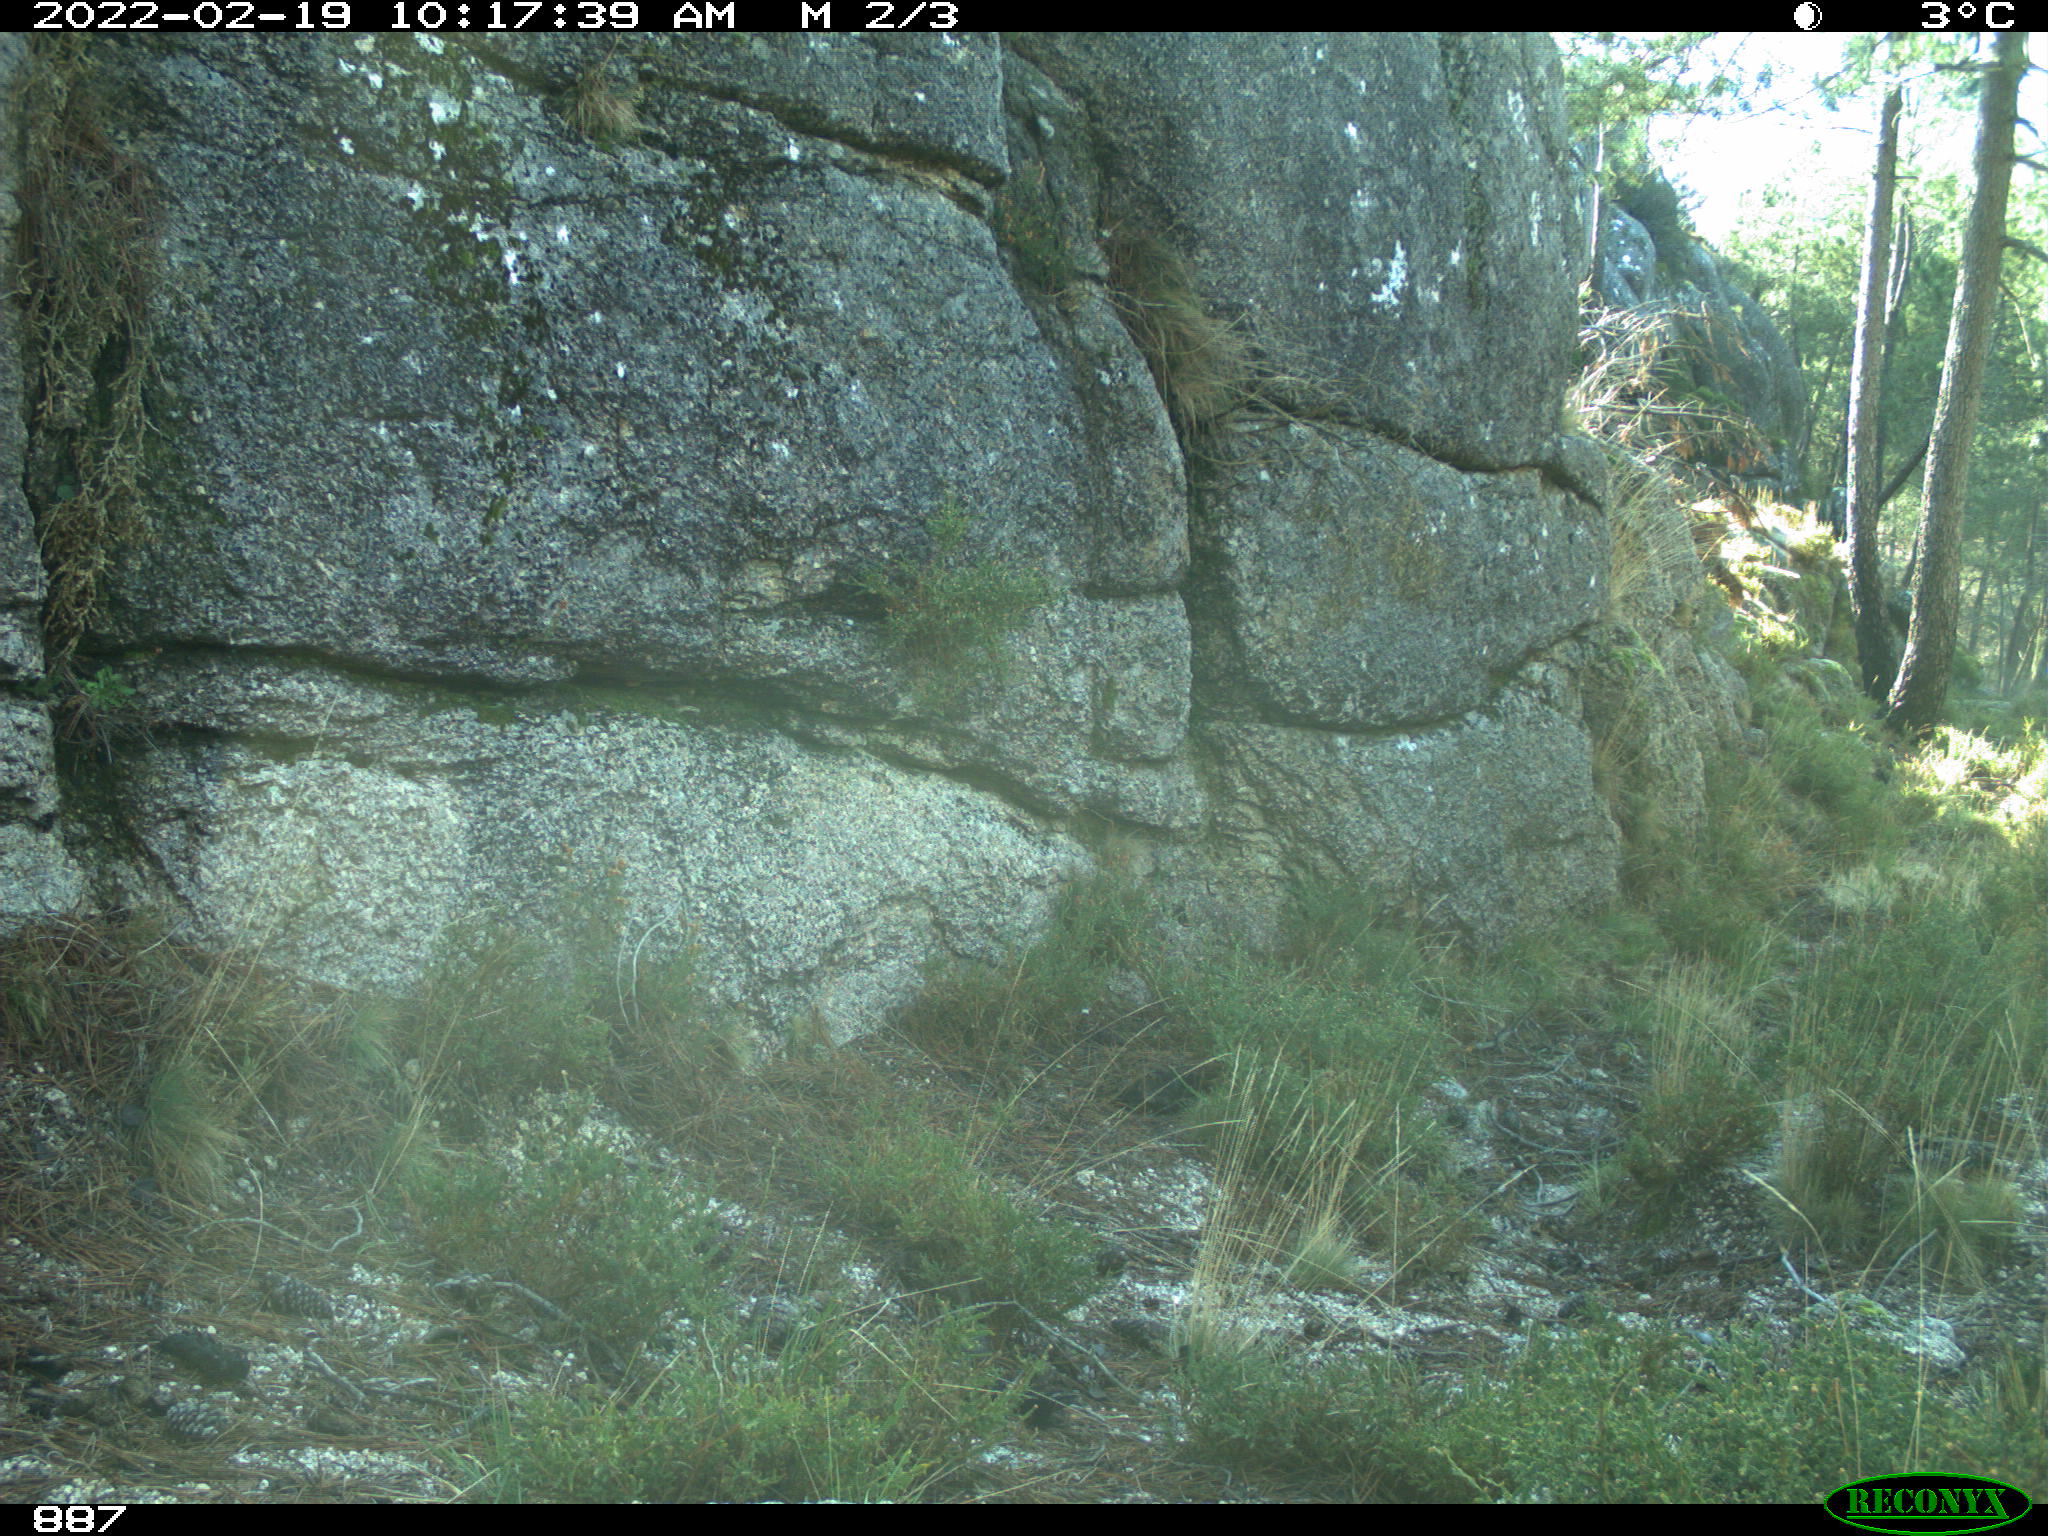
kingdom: Animalia
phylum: Chordata
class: Mammalia
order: Perissodactyla
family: Equidae
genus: Equus
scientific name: Equus caballus
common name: Horse
